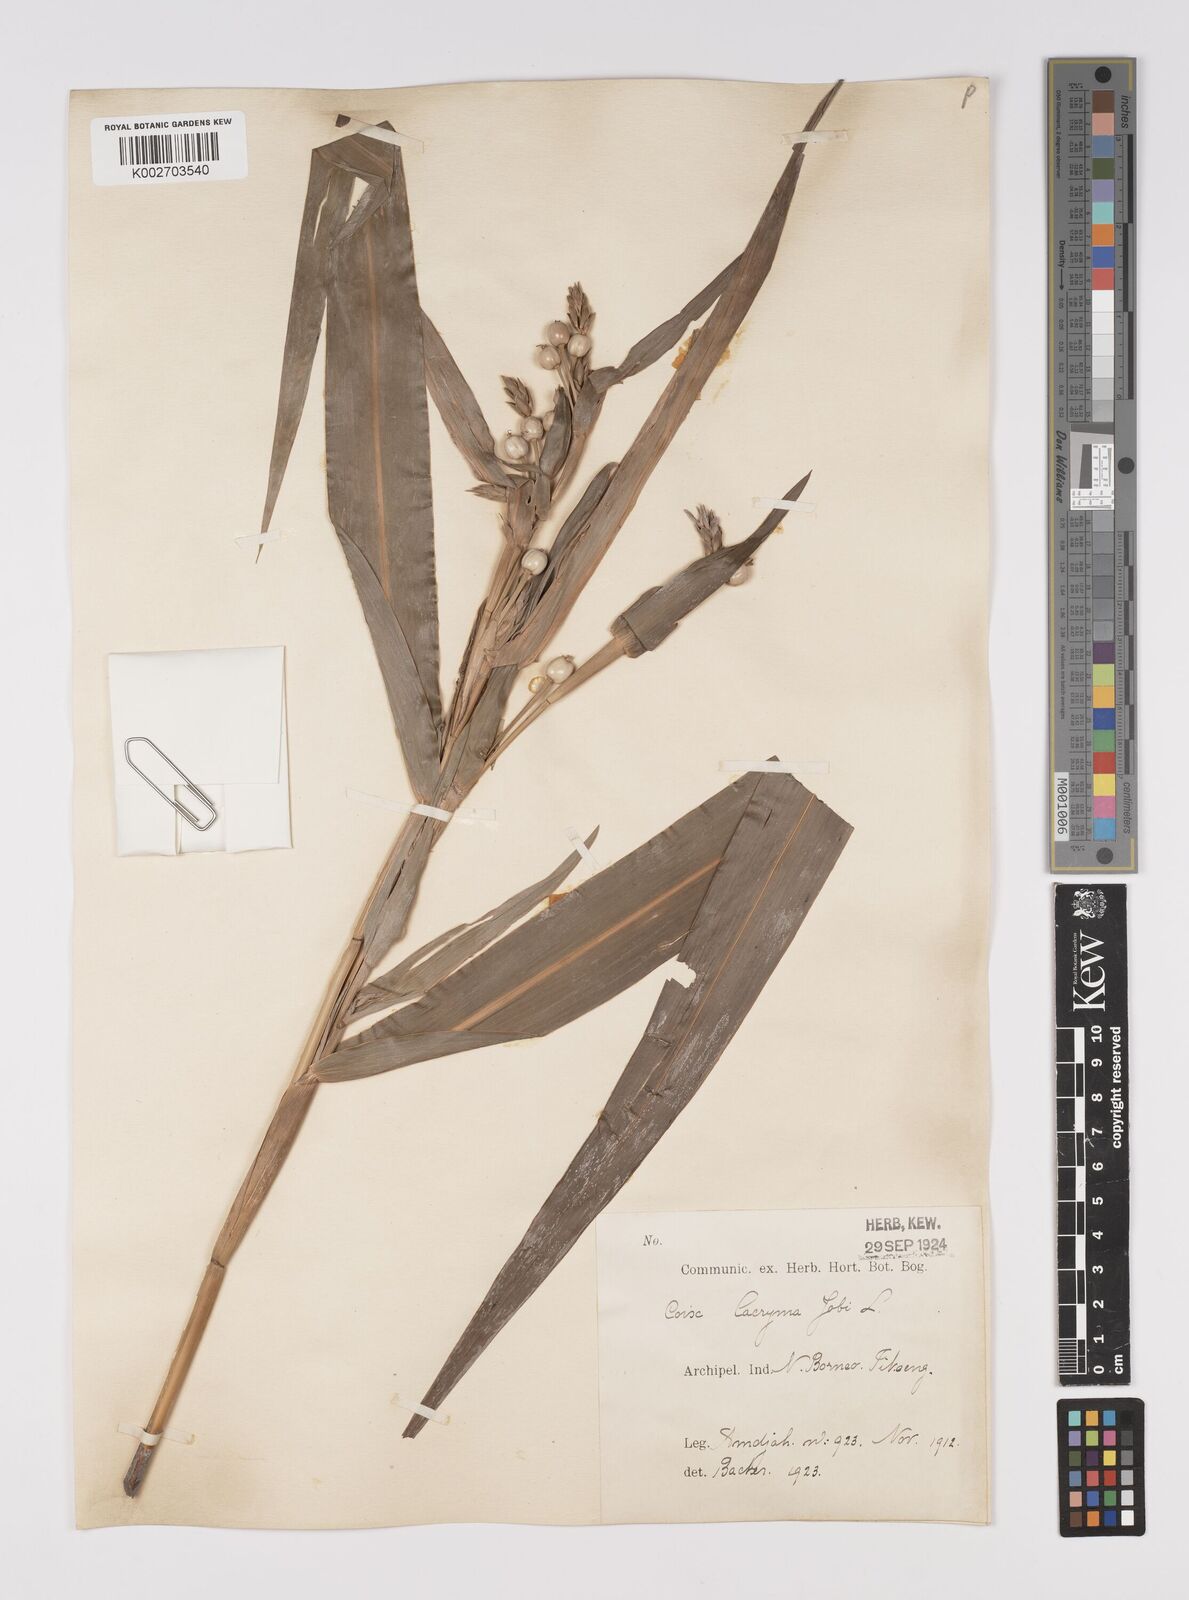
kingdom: Plantae
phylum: Tracheophyta
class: Liliopsida
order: Poales
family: Poaceae
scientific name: Poaceae
